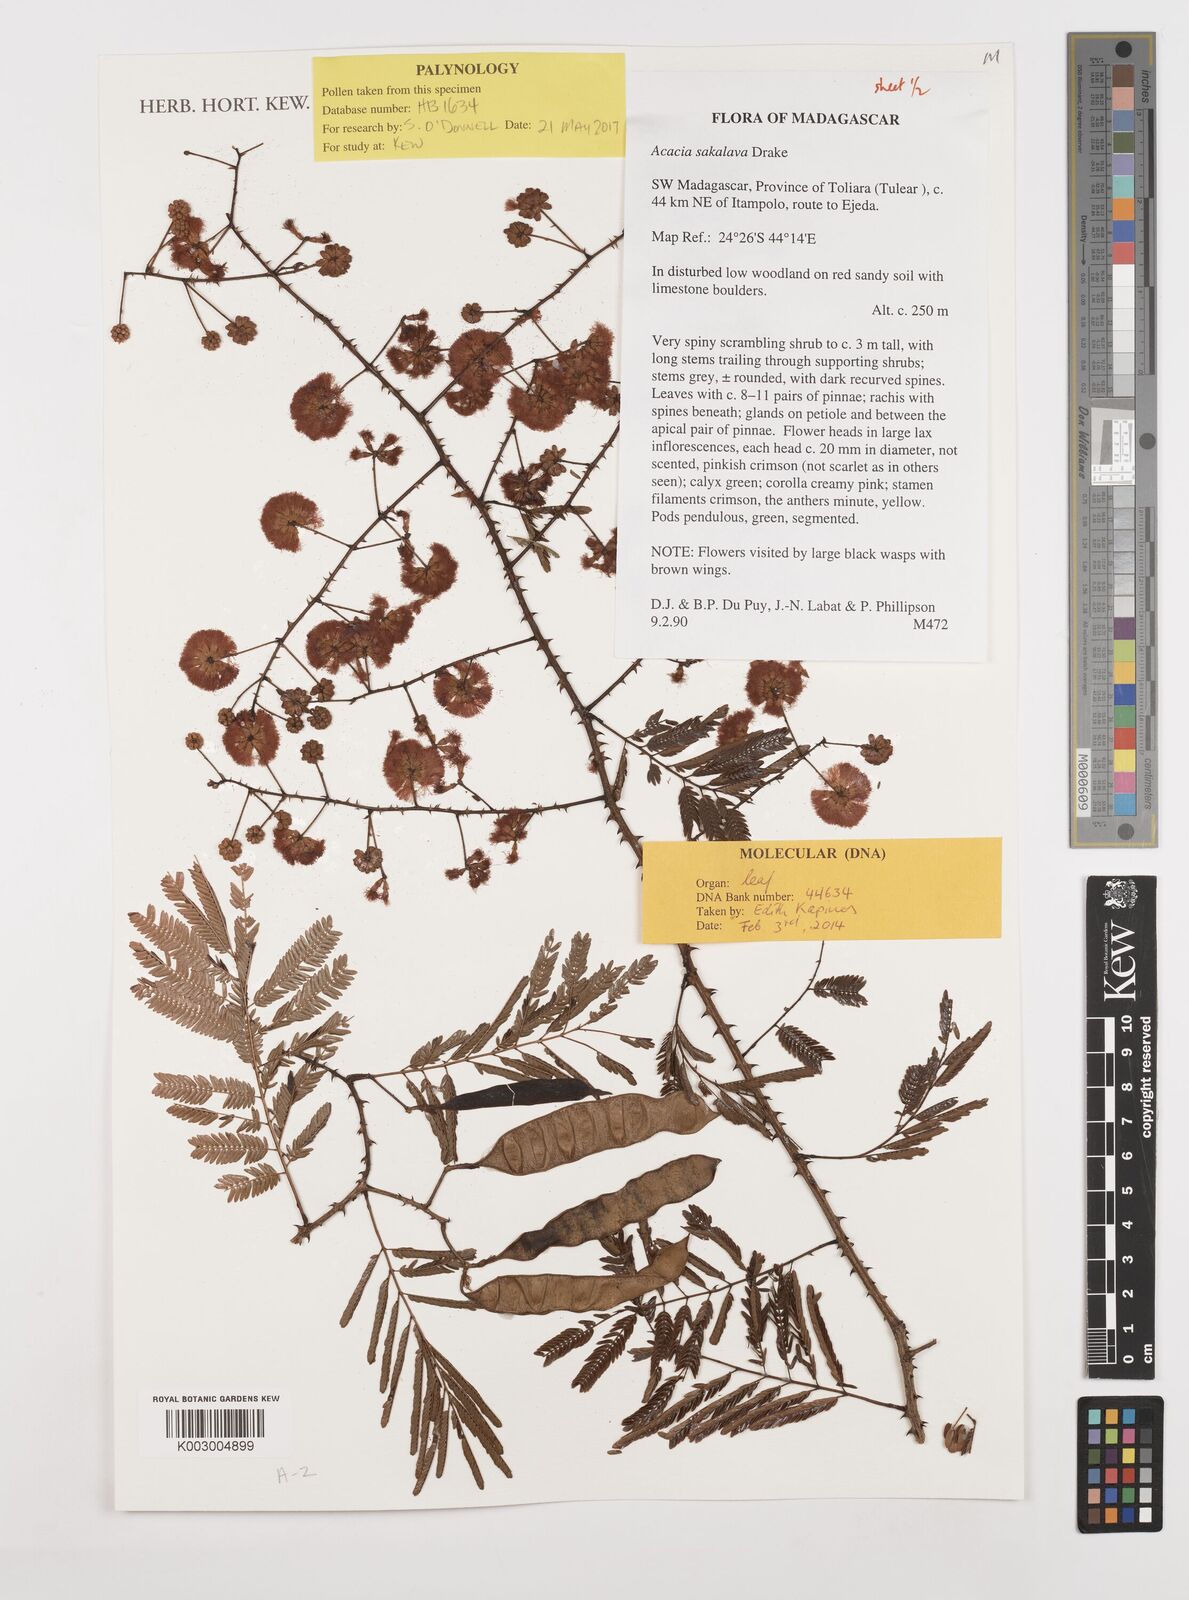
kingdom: Plantae
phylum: Tracheophyta
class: Magnoliopsida
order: Fabales
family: Fabaceae
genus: Senegalia
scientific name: Senegalia sakalava
